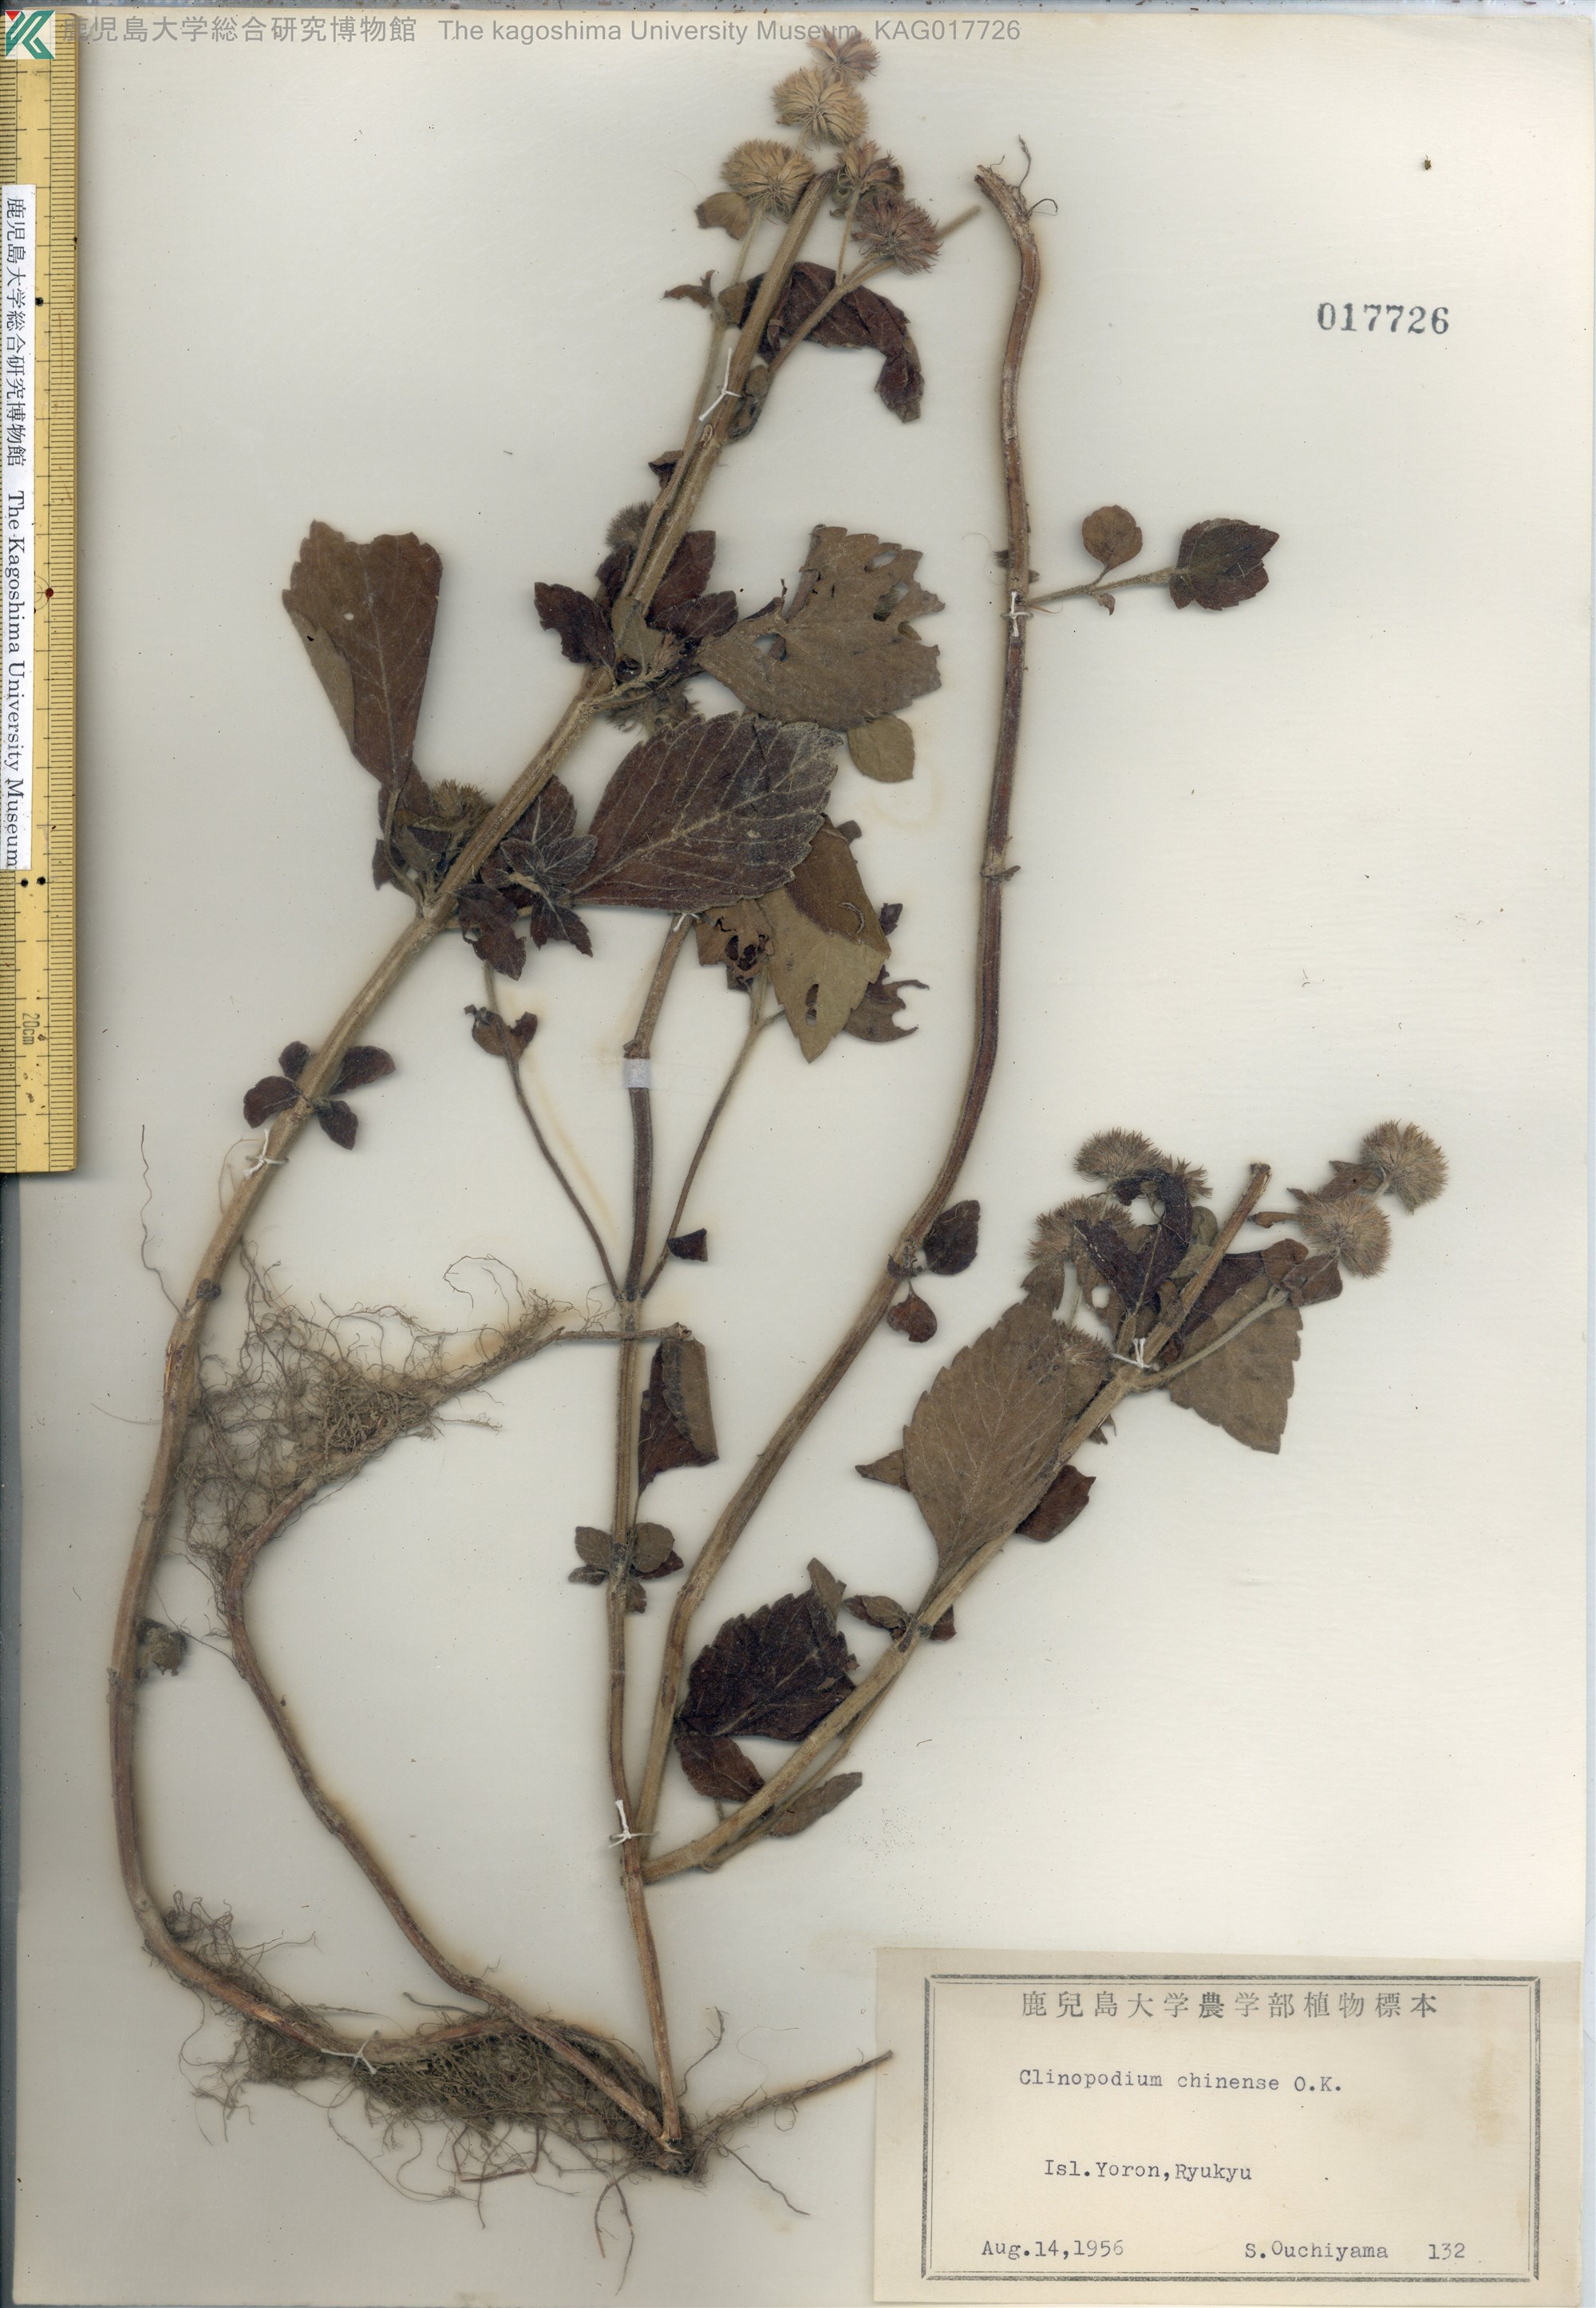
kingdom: Plantae
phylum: Tracheophyta
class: Magnoliopsida
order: Lamiales
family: Lamiaceae
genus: Clinopodium
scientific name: Clinopodium chinense
